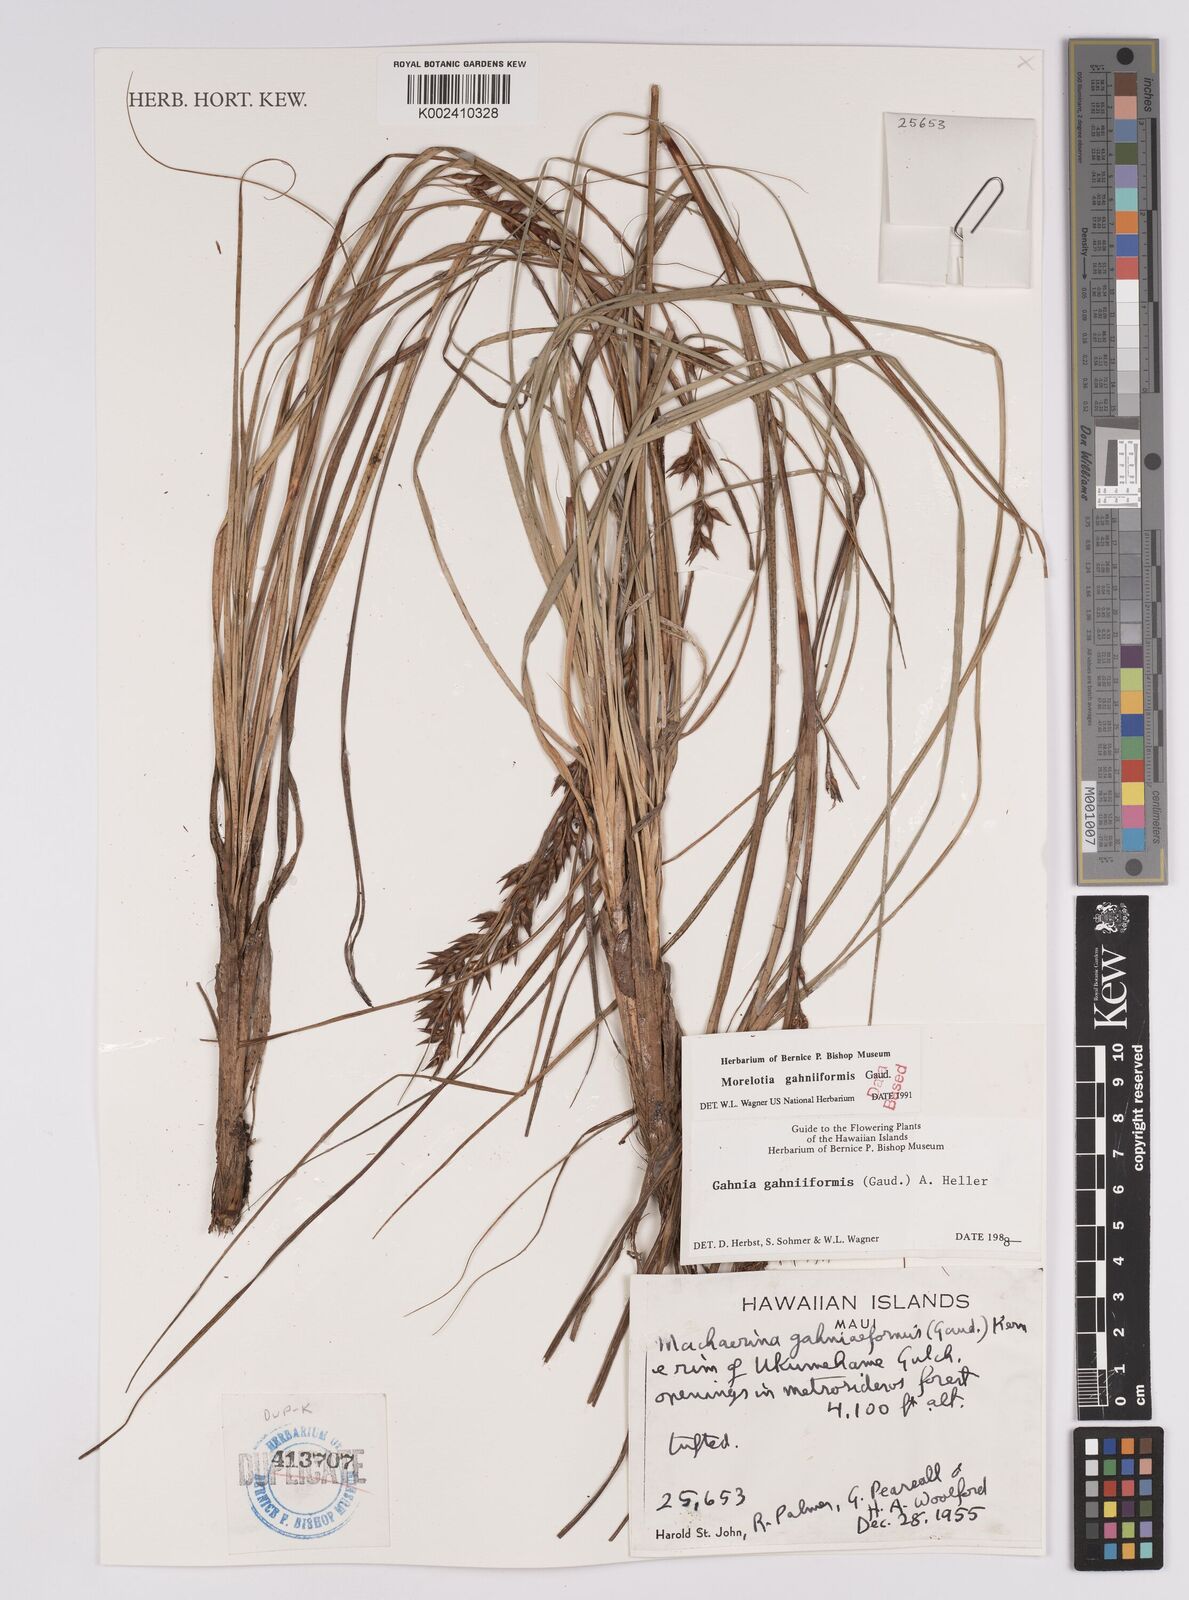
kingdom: Plantae
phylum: Tracheophyta
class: Liliopsida
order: Poales
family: Cyperaceae
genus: Morelotia
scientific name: Morelotia gahniiformis
